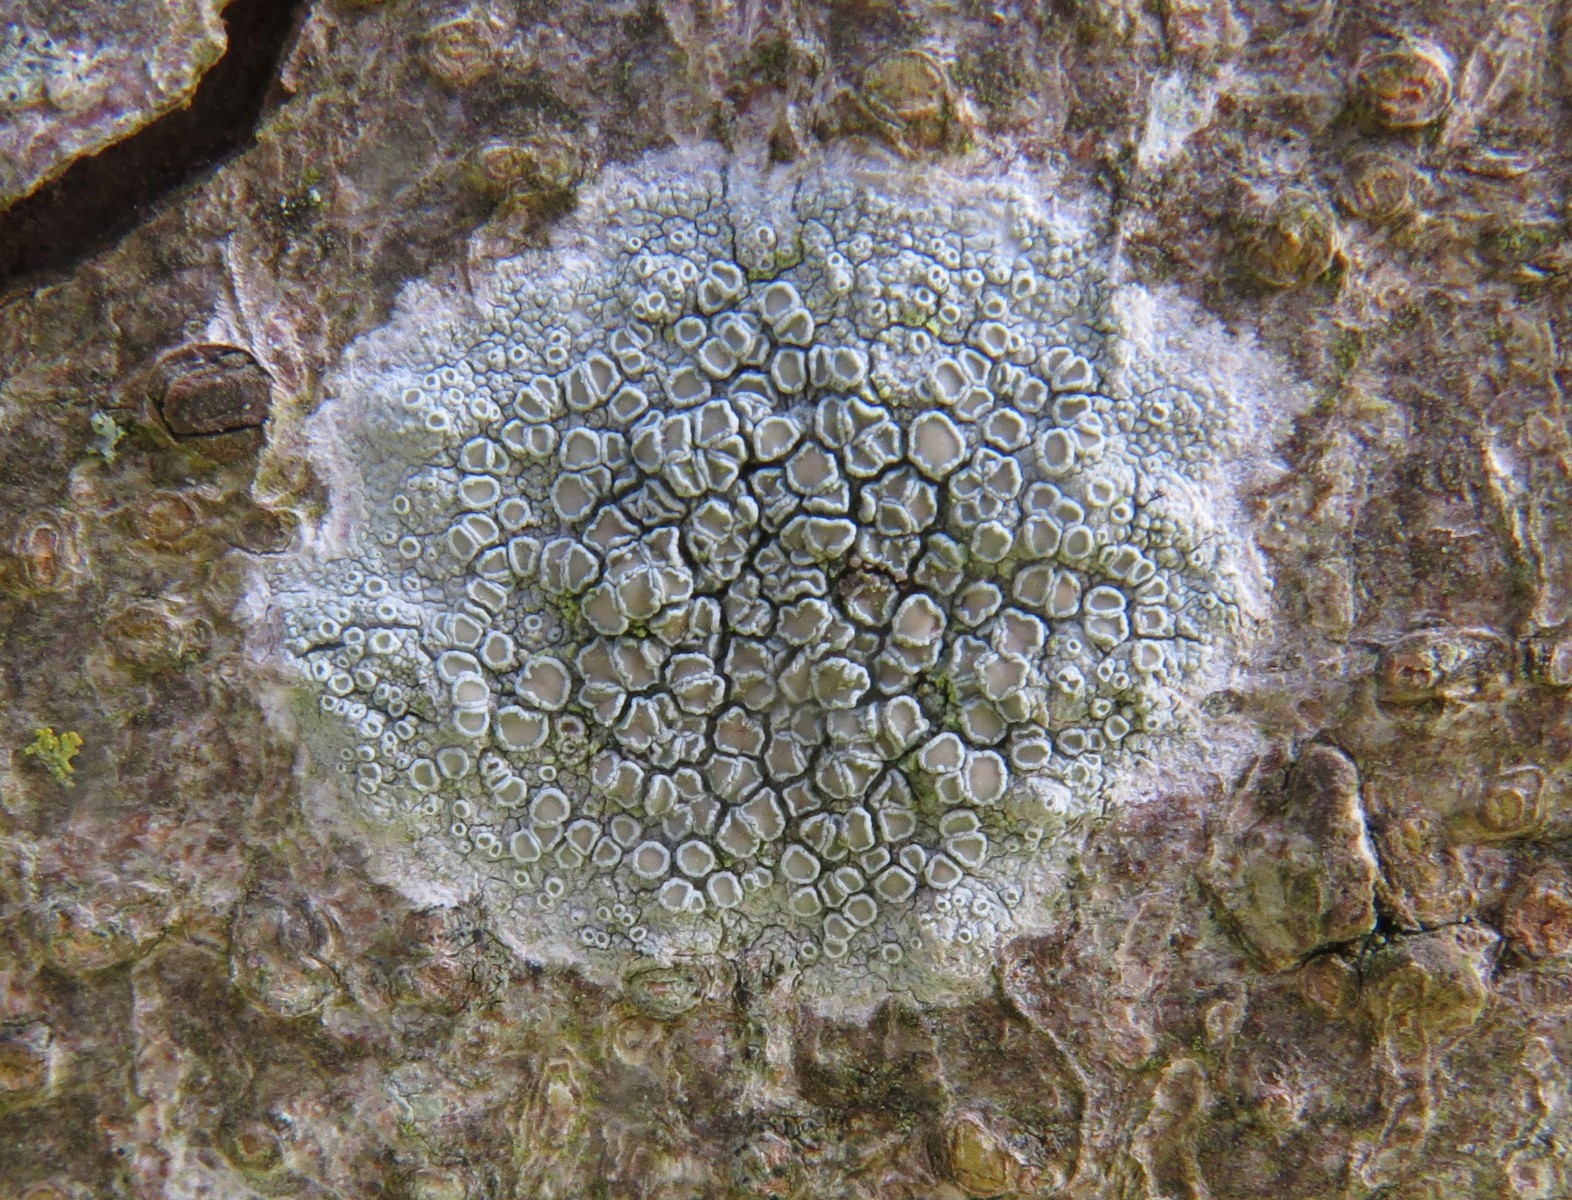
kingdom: Fungi
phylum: Ascomycota
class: Lecanoromycetes
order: Lecanorales
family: Lecanoraceae
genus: Lecanora
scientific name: Lecanora chlarotera
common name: brun kantskivelav
